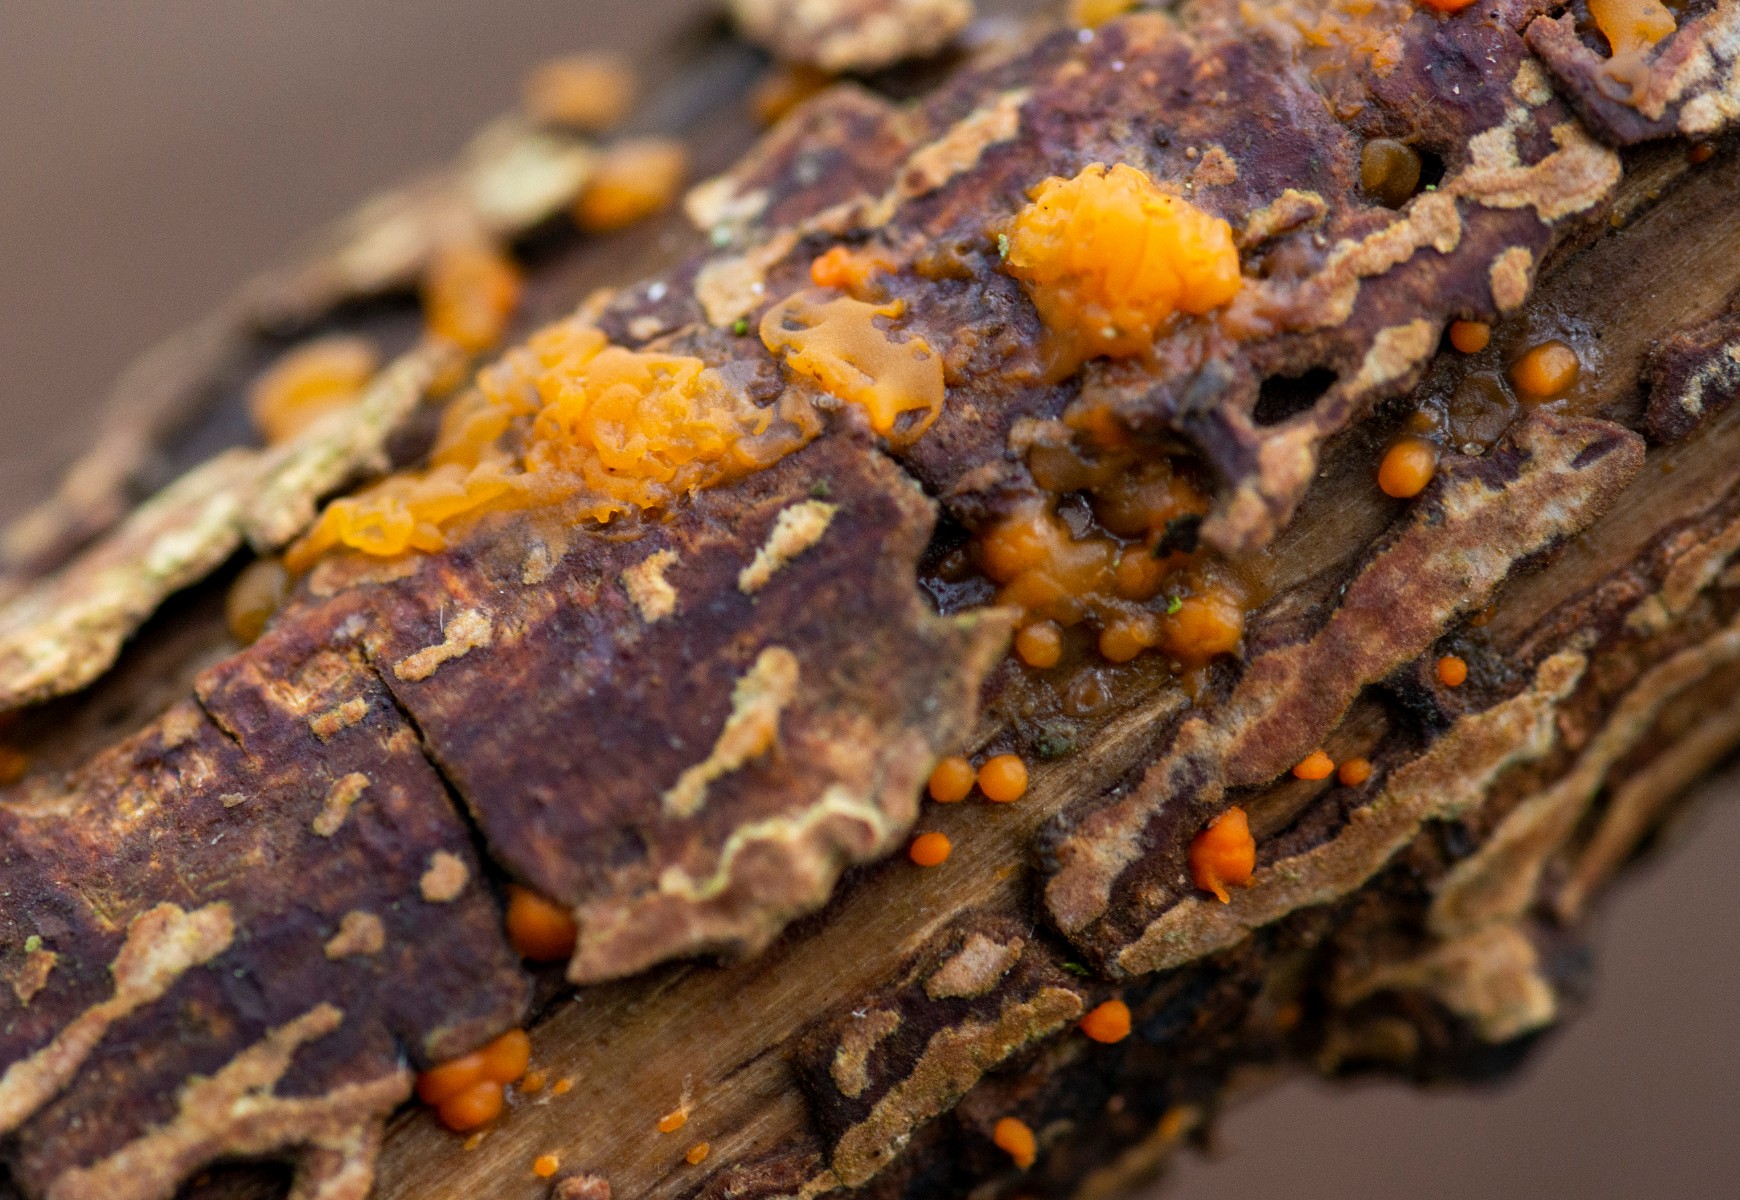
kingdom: Fungi
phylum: Basidiomycota
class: Dacrymycetes
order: Dacrymycetales
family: Dacrymycetaceae
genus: Dacrymyces
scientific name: Dacrymyces stillatus
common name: almindelig tåresvamp
